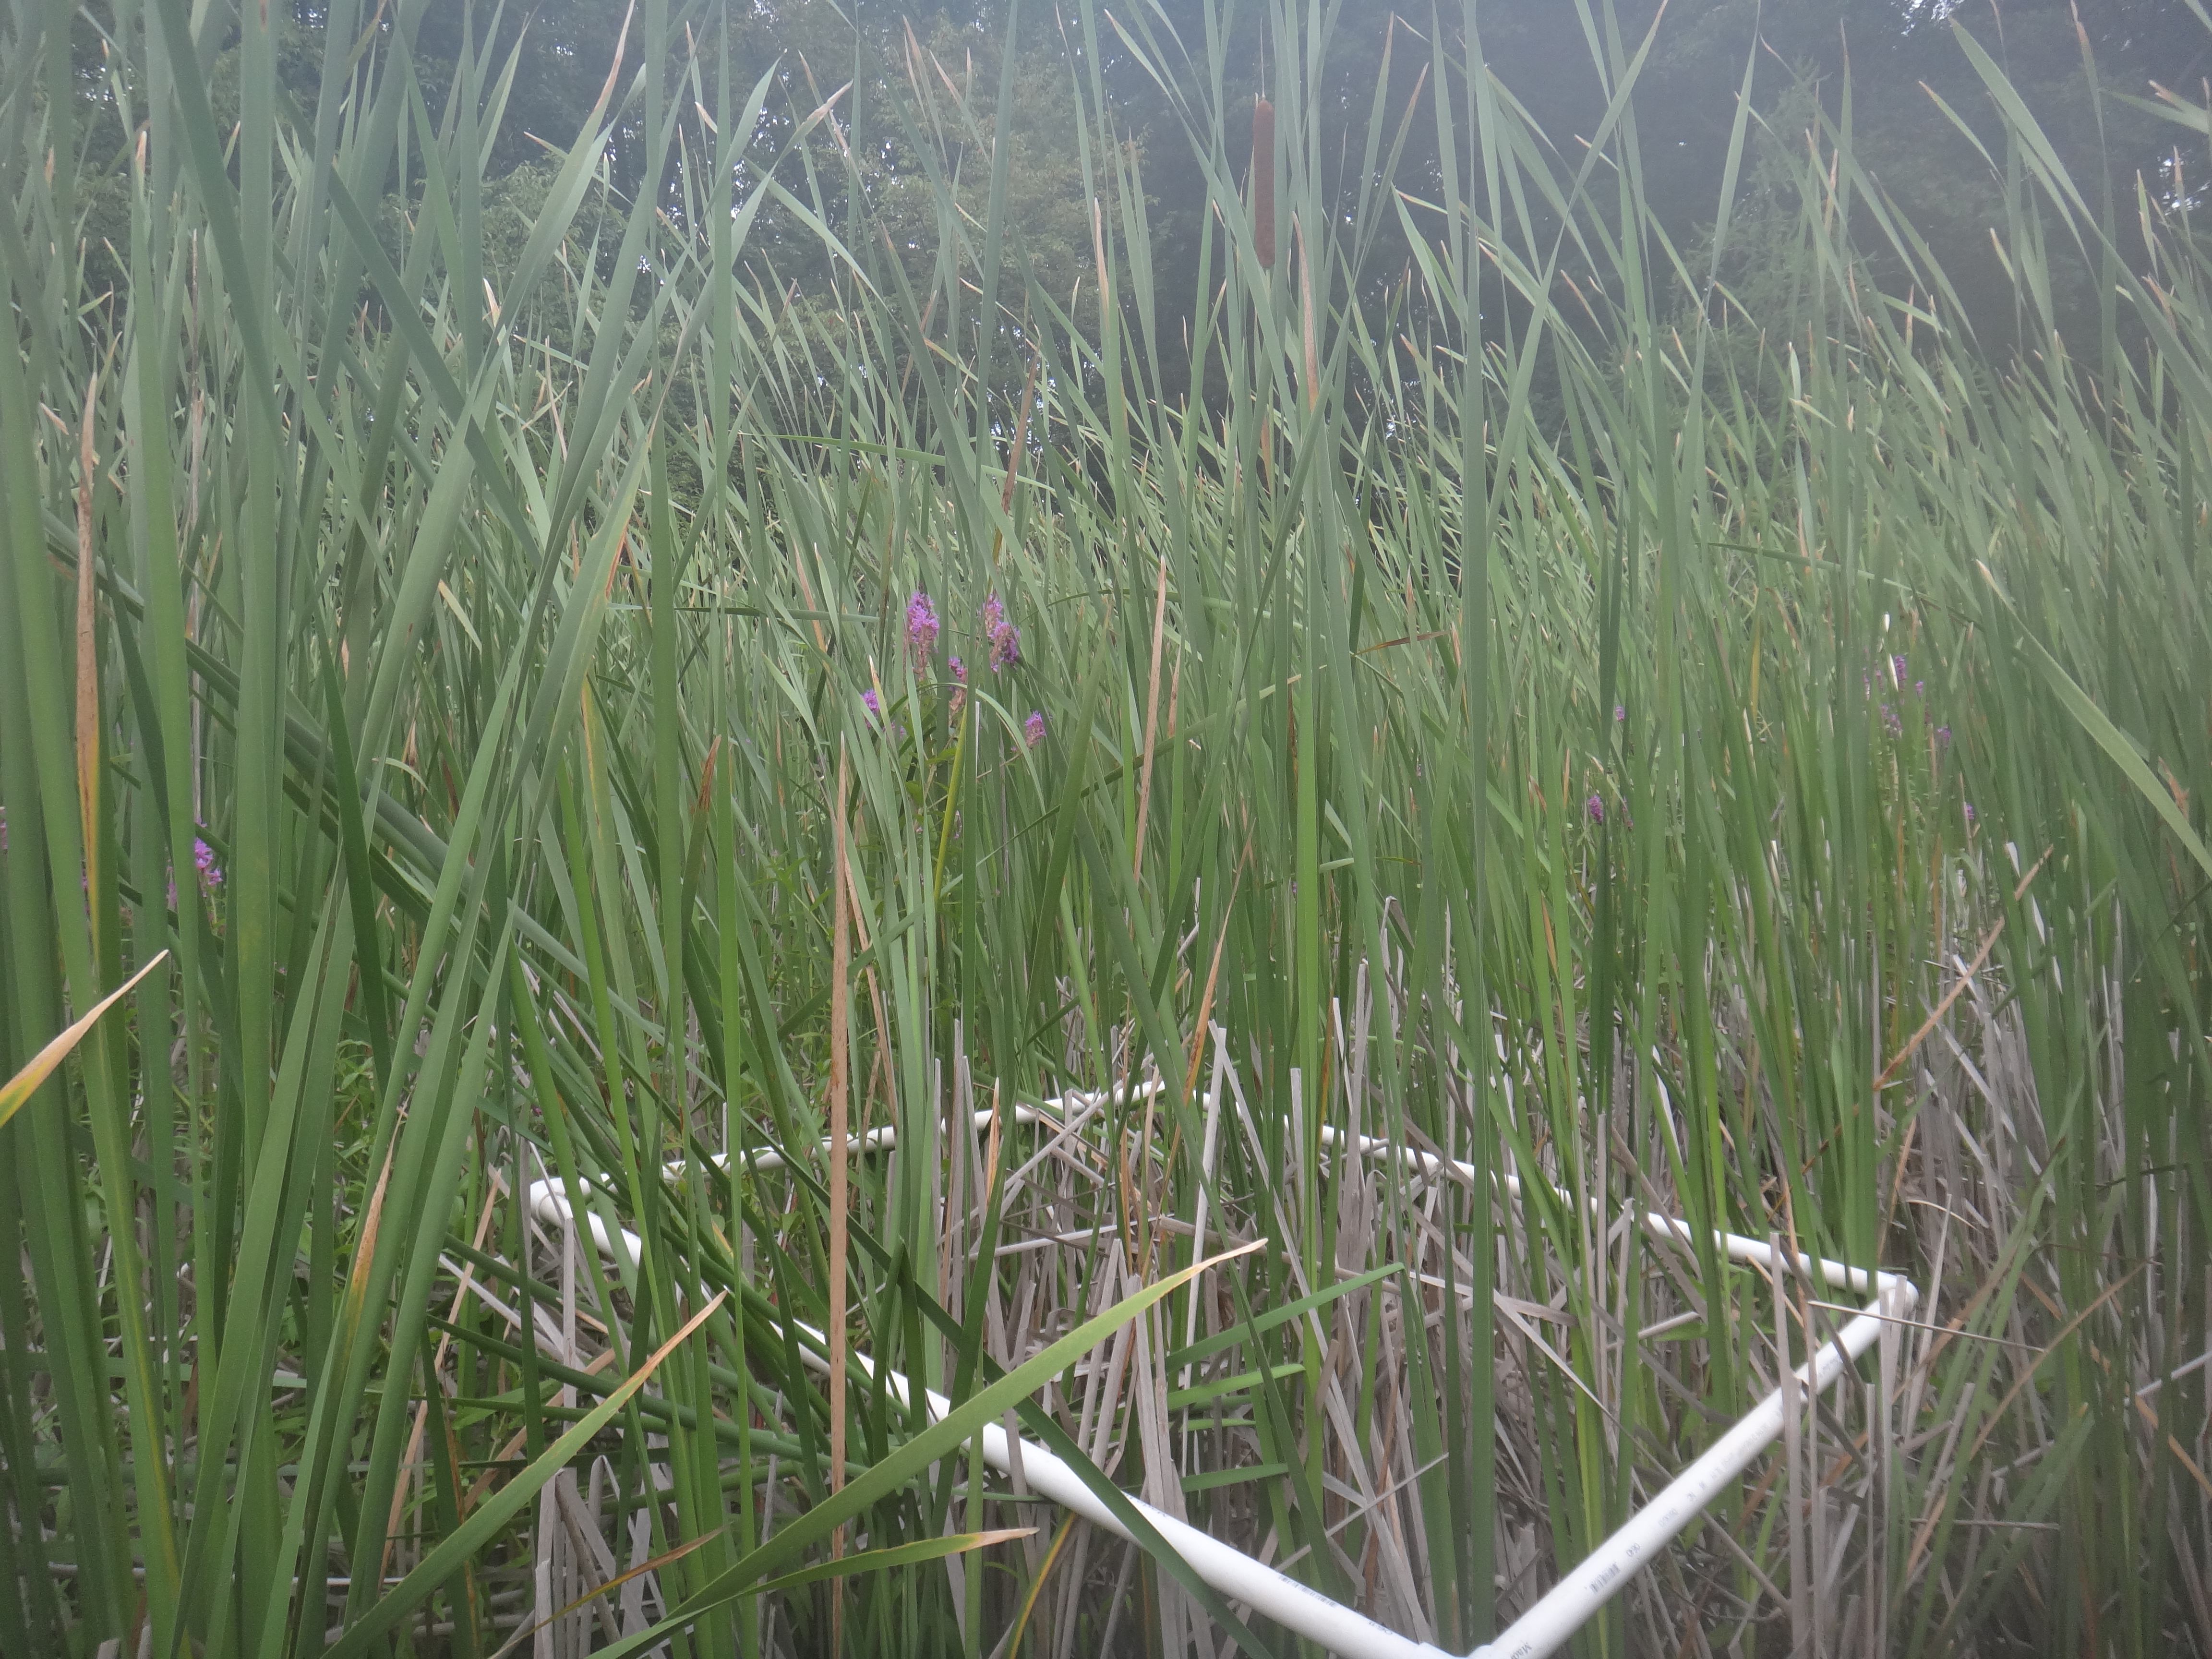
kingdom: Plantae
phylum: Tracheophyta
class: Magnoliopsida
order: Fabales
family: Fabaceae
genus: Apios
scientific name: Apios americana
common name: American potato-bean
